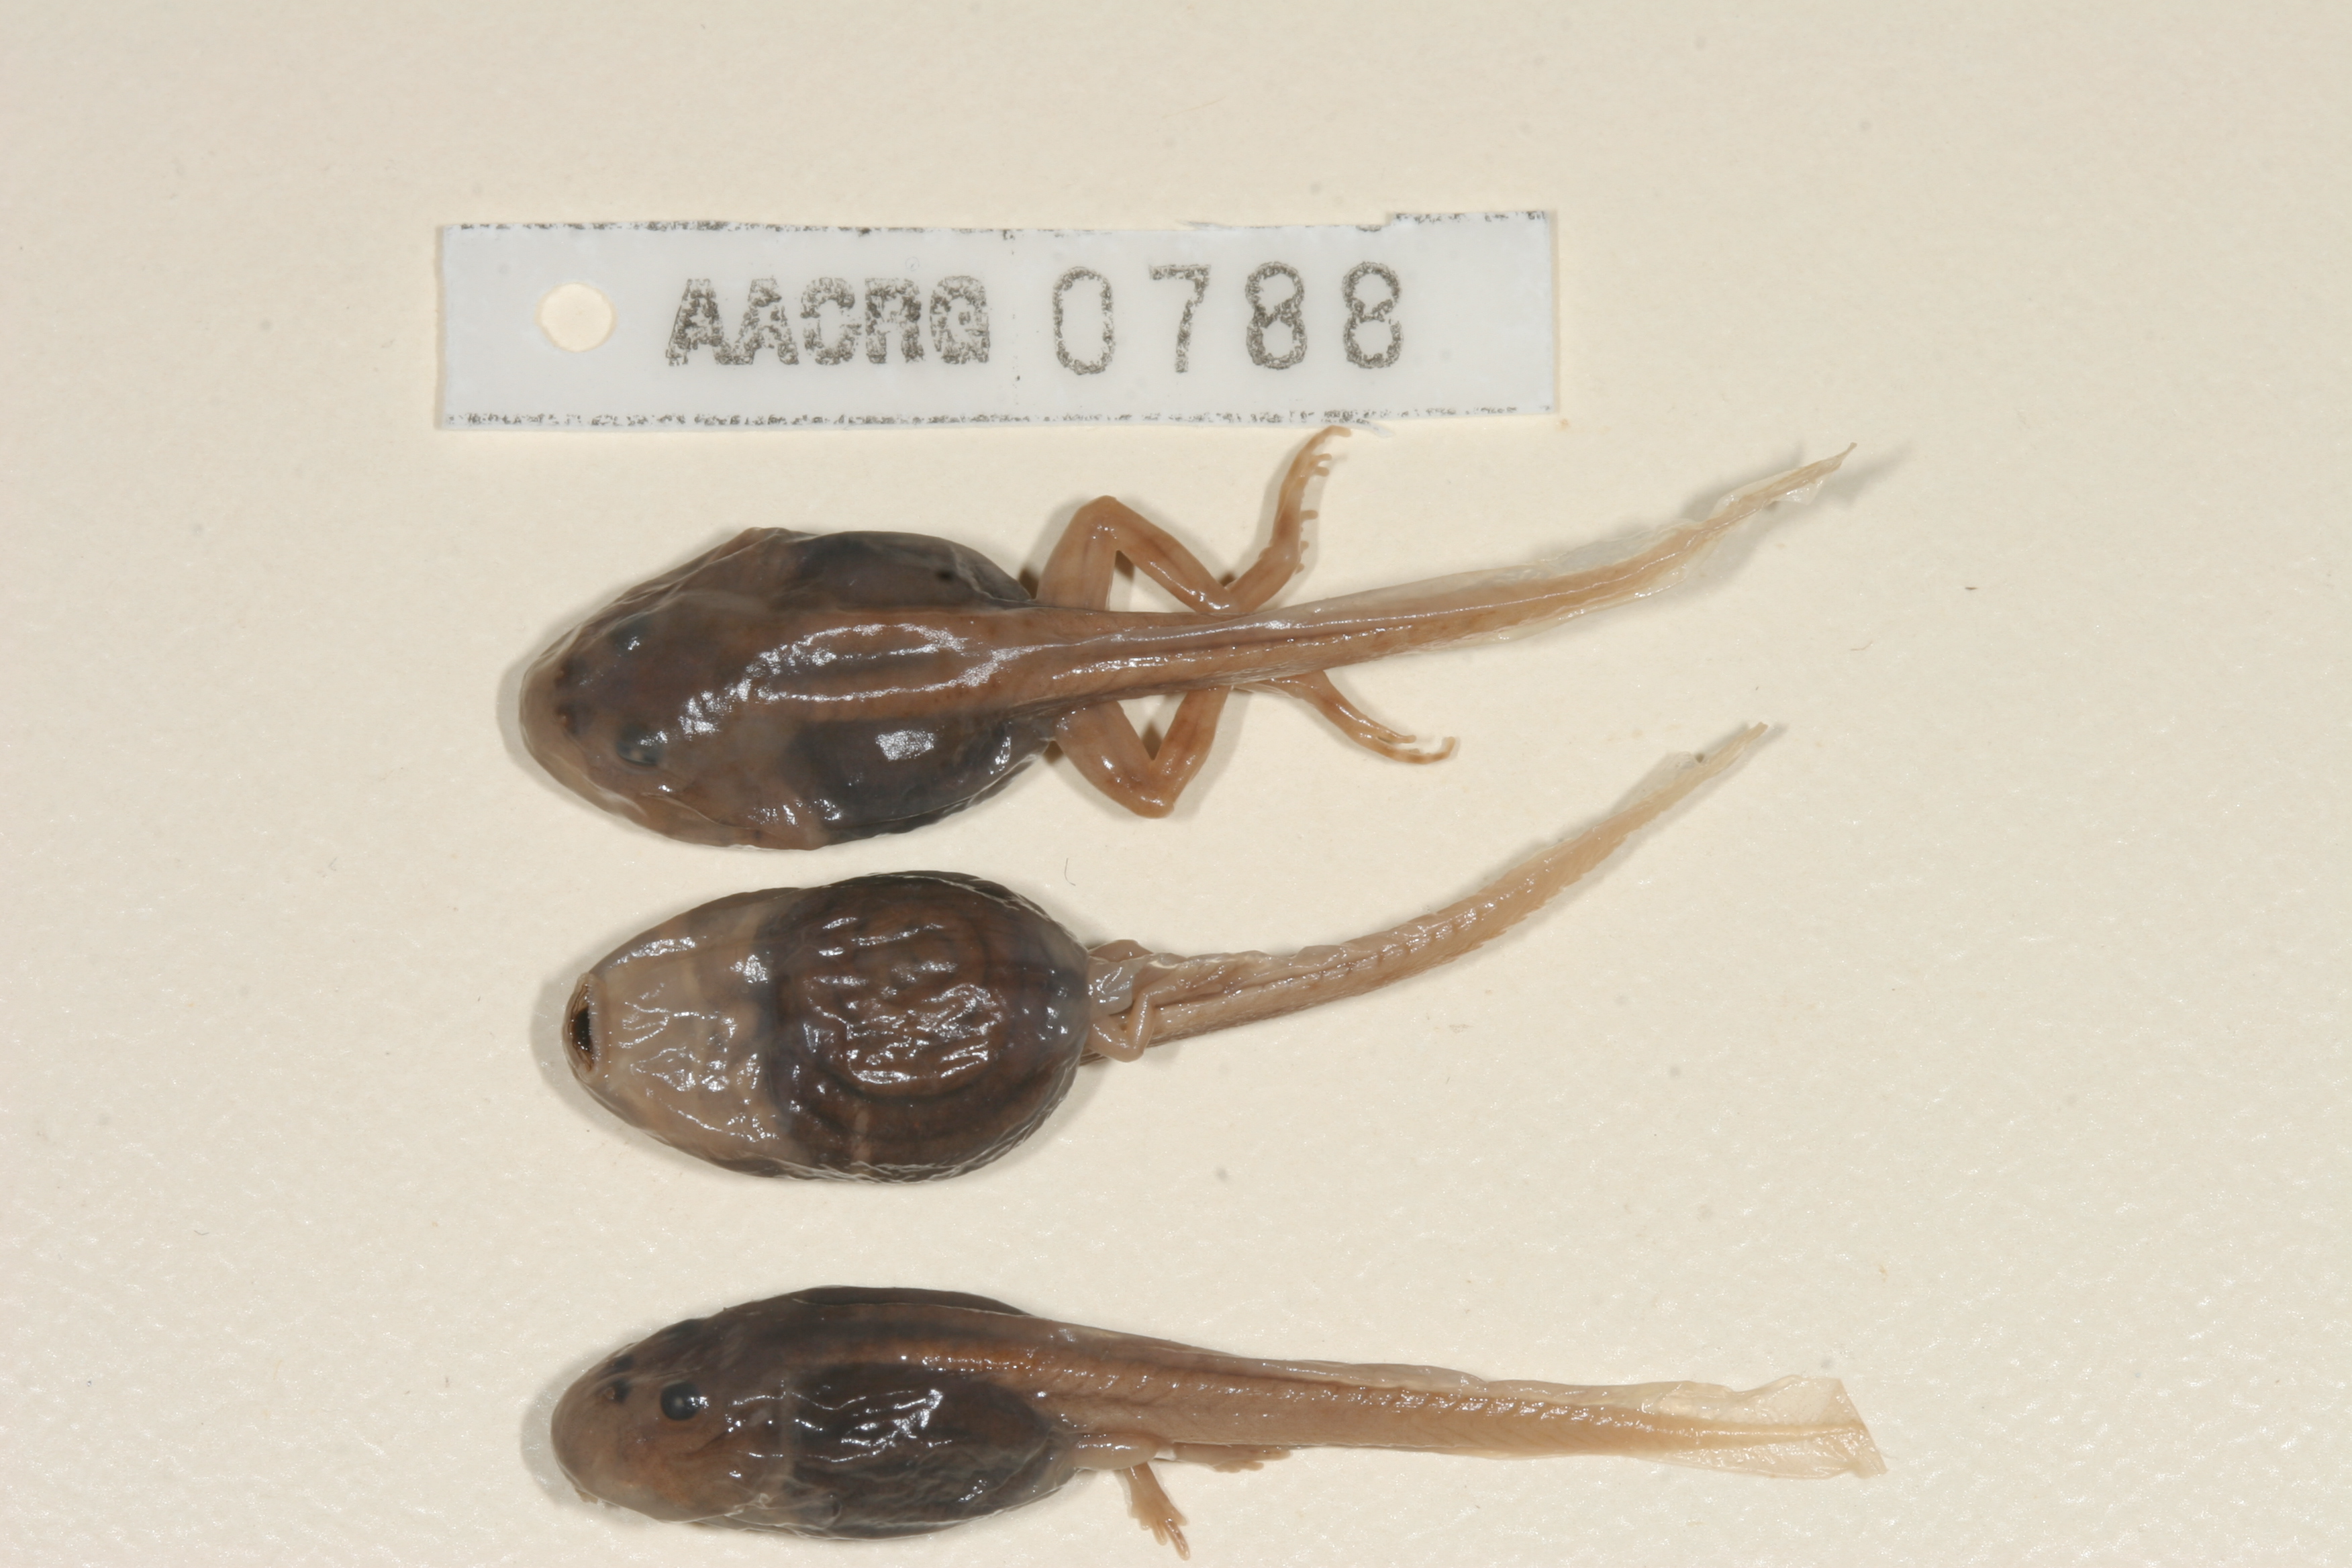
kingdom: Animalia
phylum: Chordata
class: Amphibia
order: Anura
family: Pyxicephalidae
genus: Strongylopus
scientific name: Strongylopus springbokensis
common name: Namaqua stream frog
